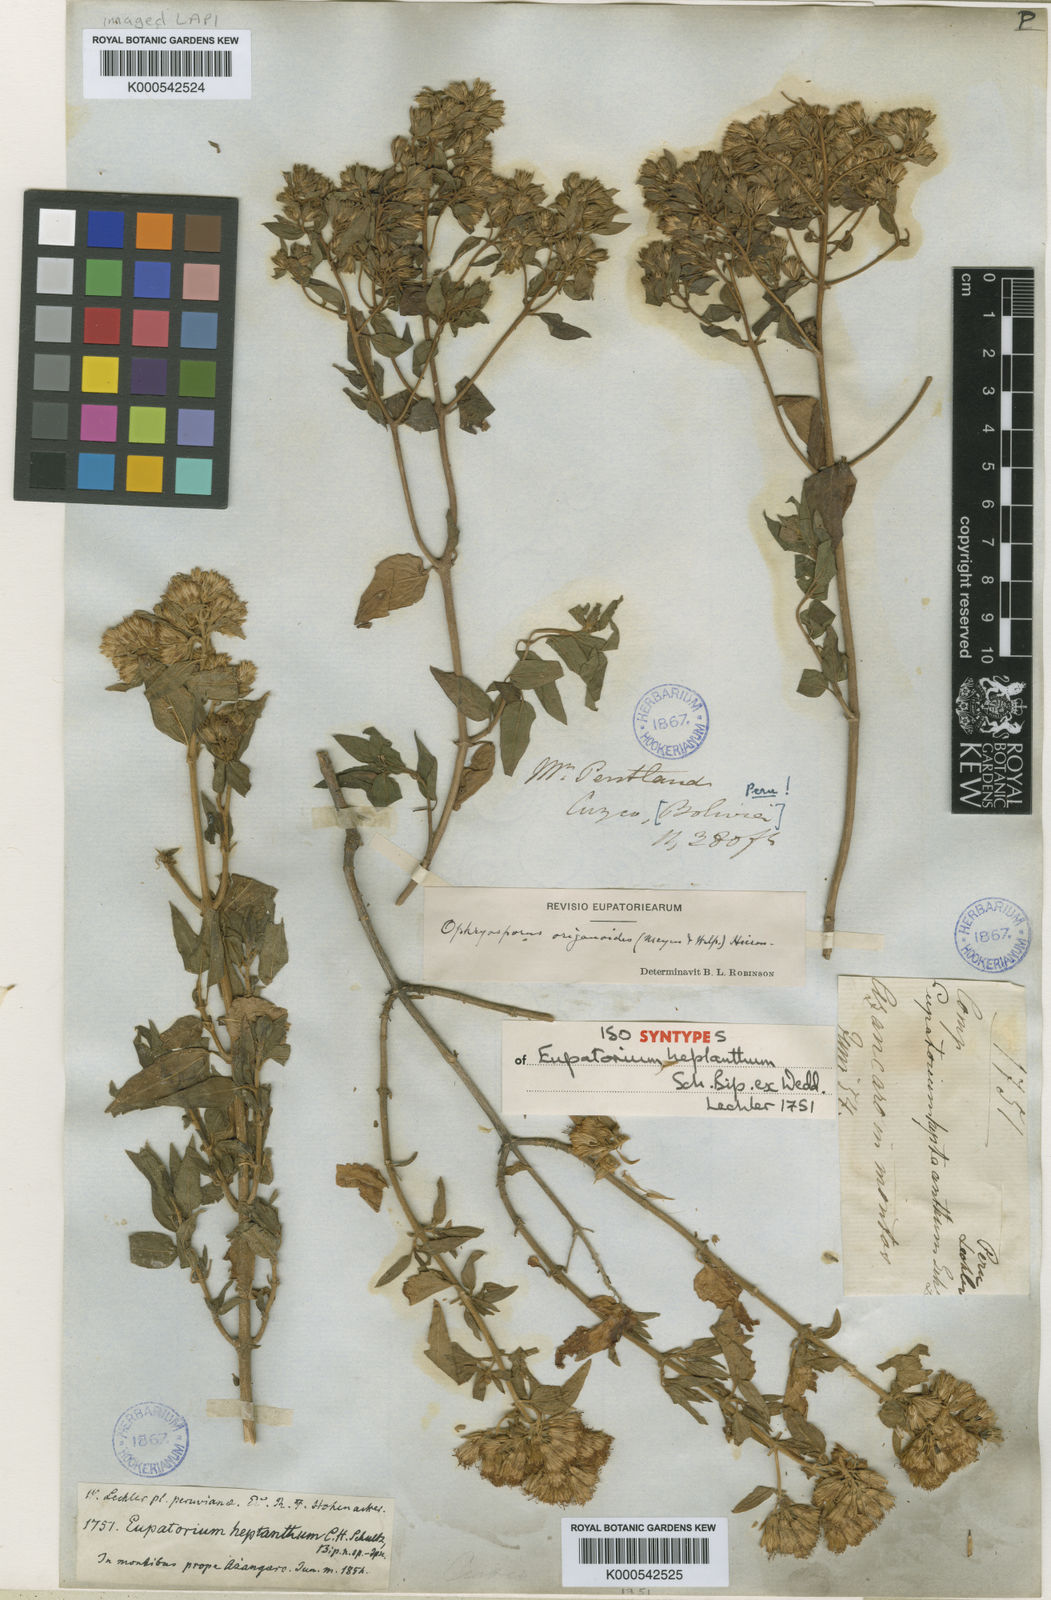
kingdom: Plantae
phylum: Tracheophyta
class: Magnoliopsida
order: Asterales
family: Asteraceae
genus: Ophryosporus
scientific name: Ophryosporus heptanthus
